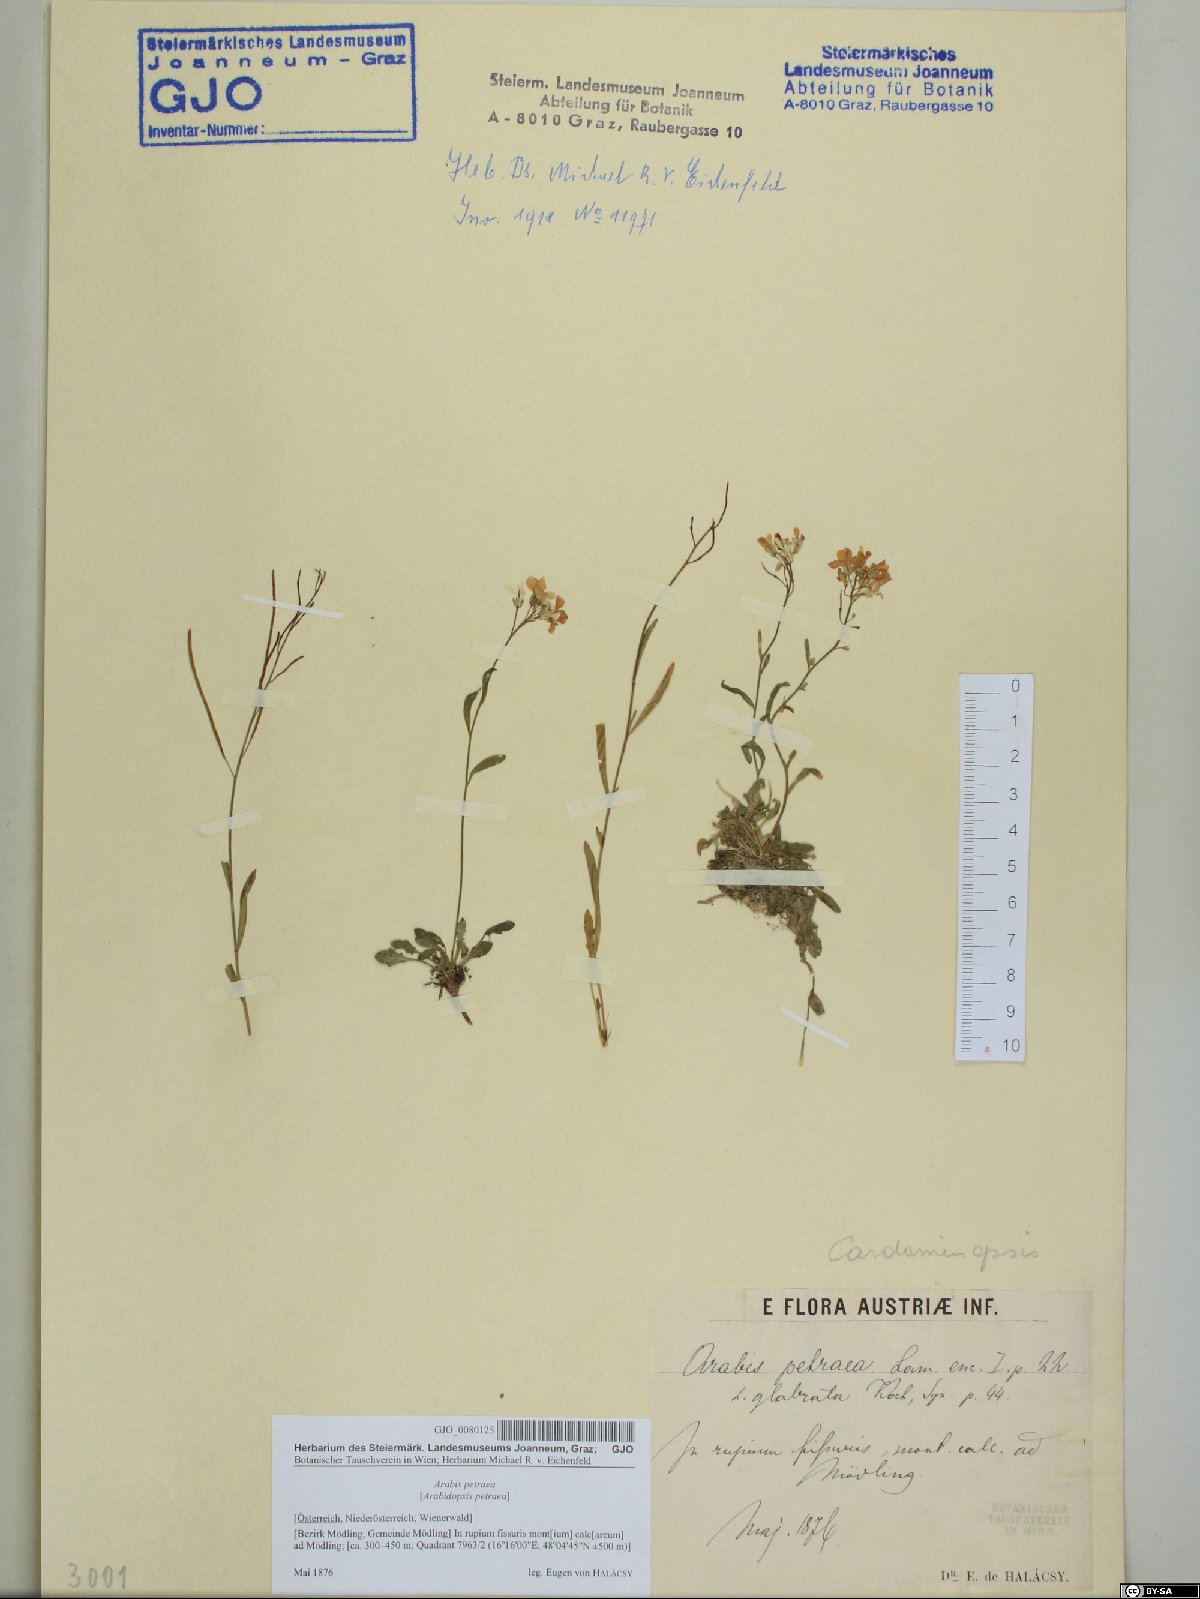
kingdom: Plantae
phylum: Tracheophyta
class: Magnoliopsida
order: Brassicales
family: Brassicaceae
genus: Arabidopsis
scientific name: Arabidopsis lyrata
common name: Lyrate rockcress
